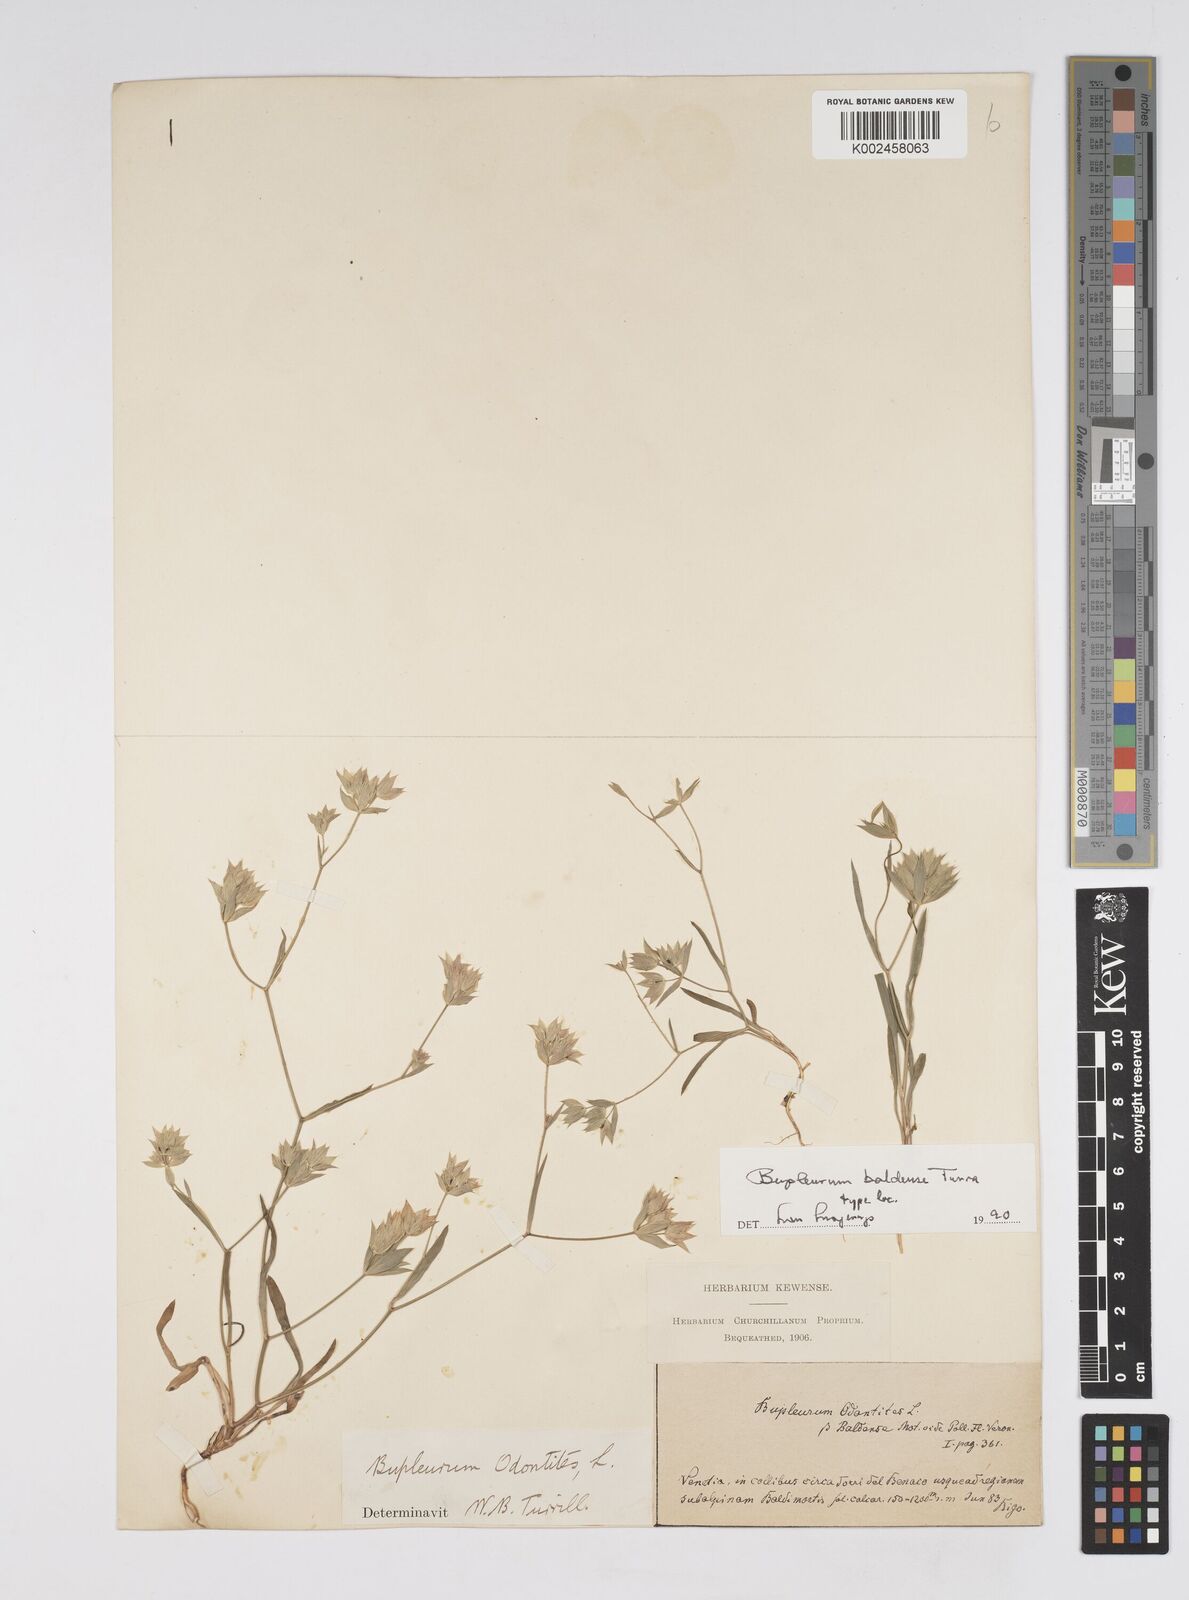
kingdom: Plantae
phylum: Tracheophyta
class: Magnoliopsida
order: Apiales
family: Apiaceae
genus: Bupleurum
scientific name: Bupleurum baldense
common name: Small hare's-ear
